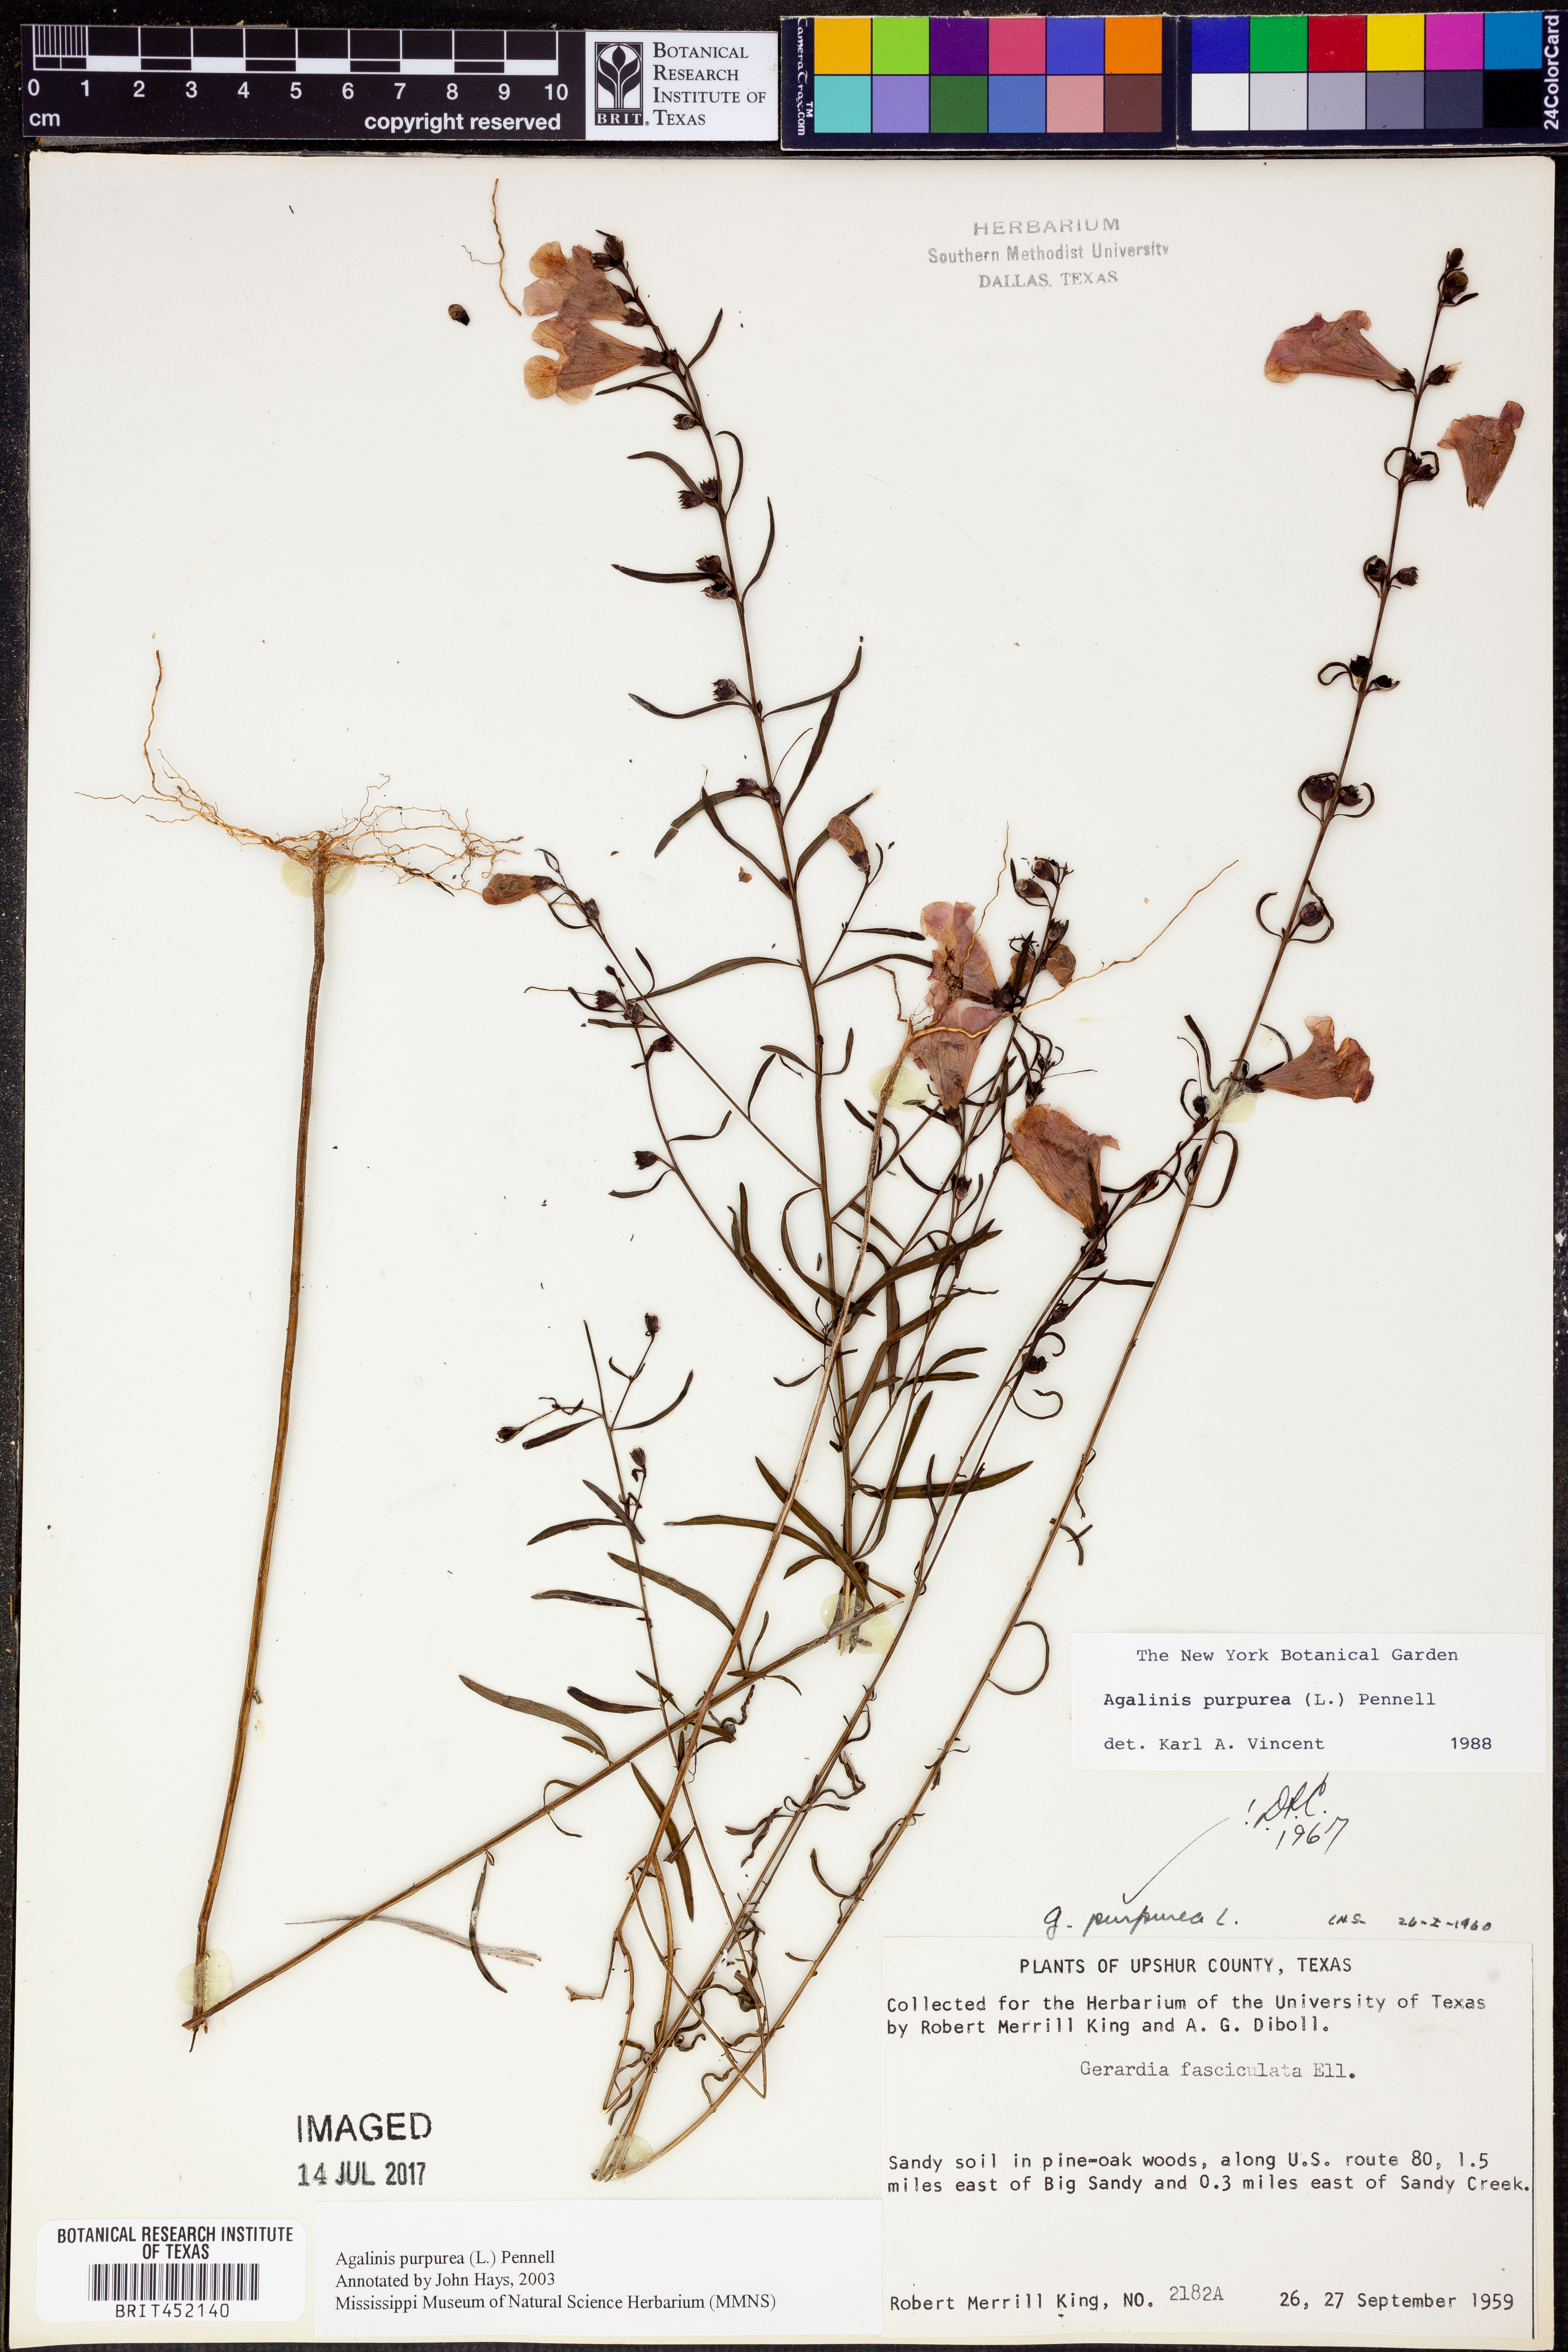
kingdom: Plantae
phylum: Tracheophyta
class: Magnoliopsida
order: Lamiales
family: Orobanchaceae
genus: Agalinis
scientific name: Agalinis purpurea
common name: Purple false foxglove
